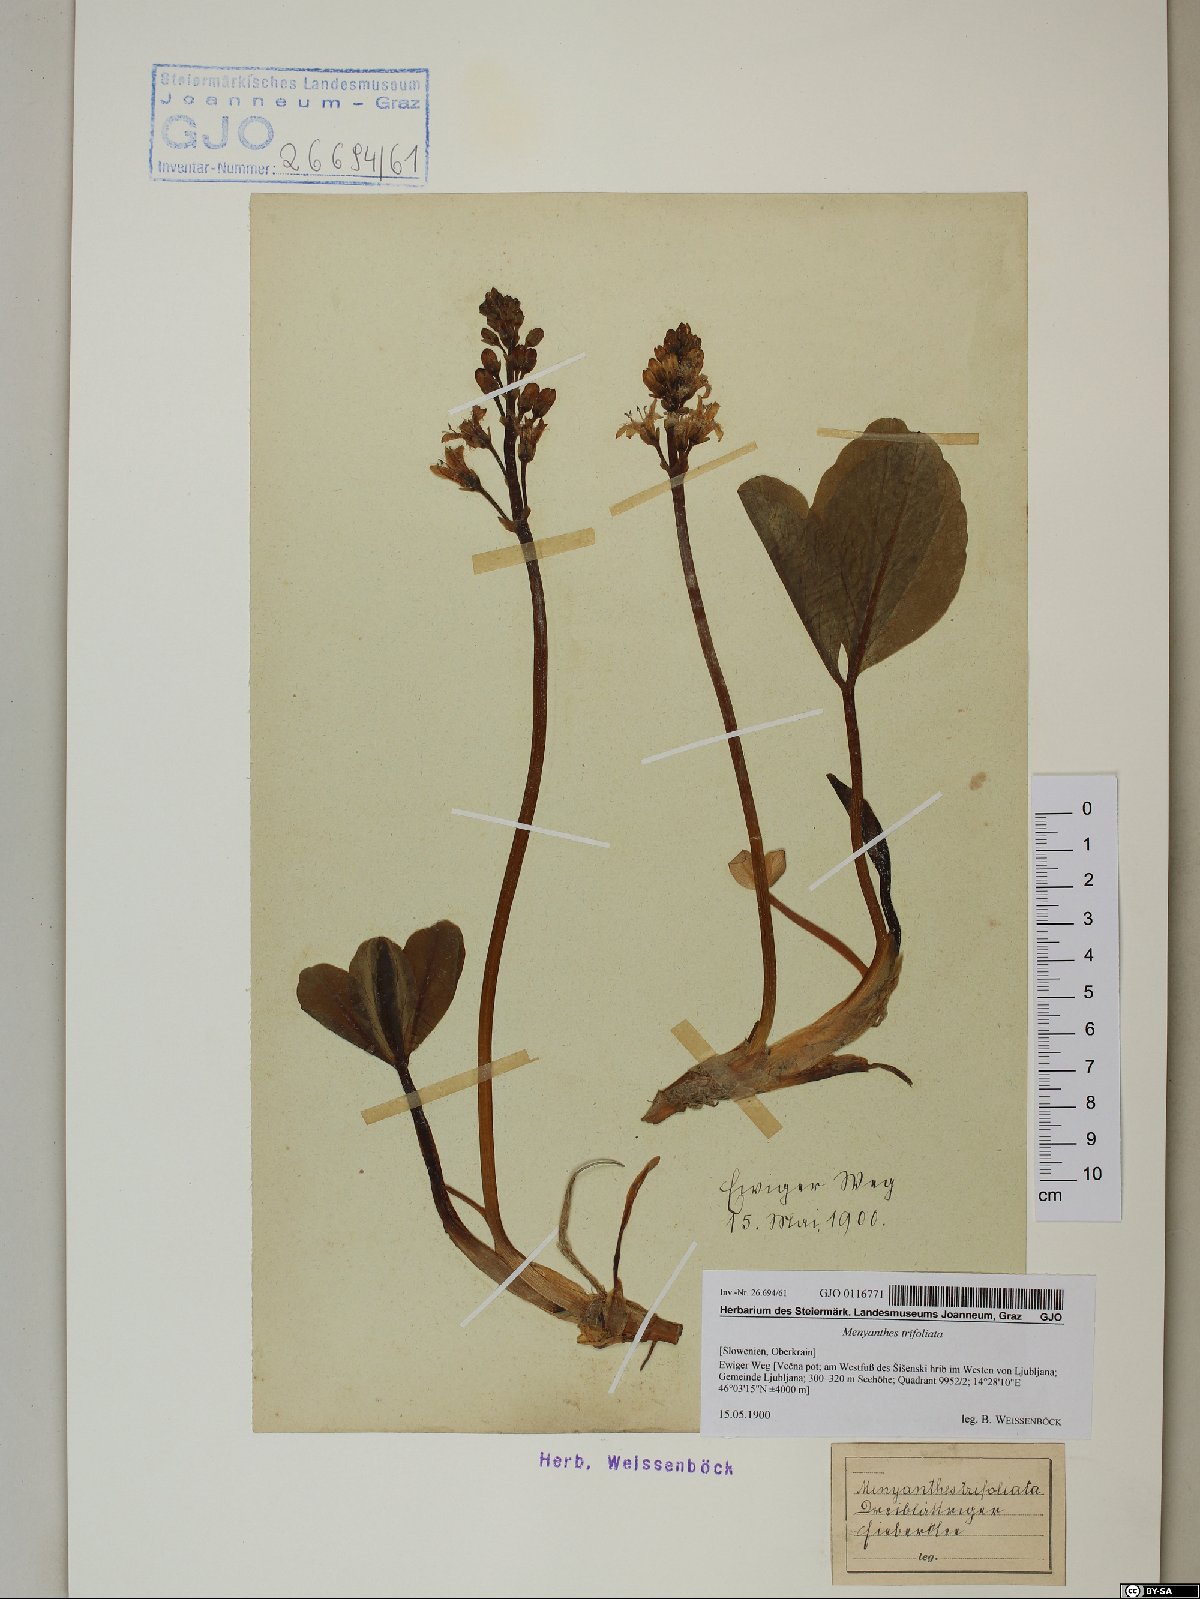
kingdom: Plantae
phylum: Tracheophyta
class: Magnoliopsida
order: Asterales
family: Menyanthaceae
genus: Menyanthes
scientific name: Menyanthes trifoliata
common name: Bogbean
